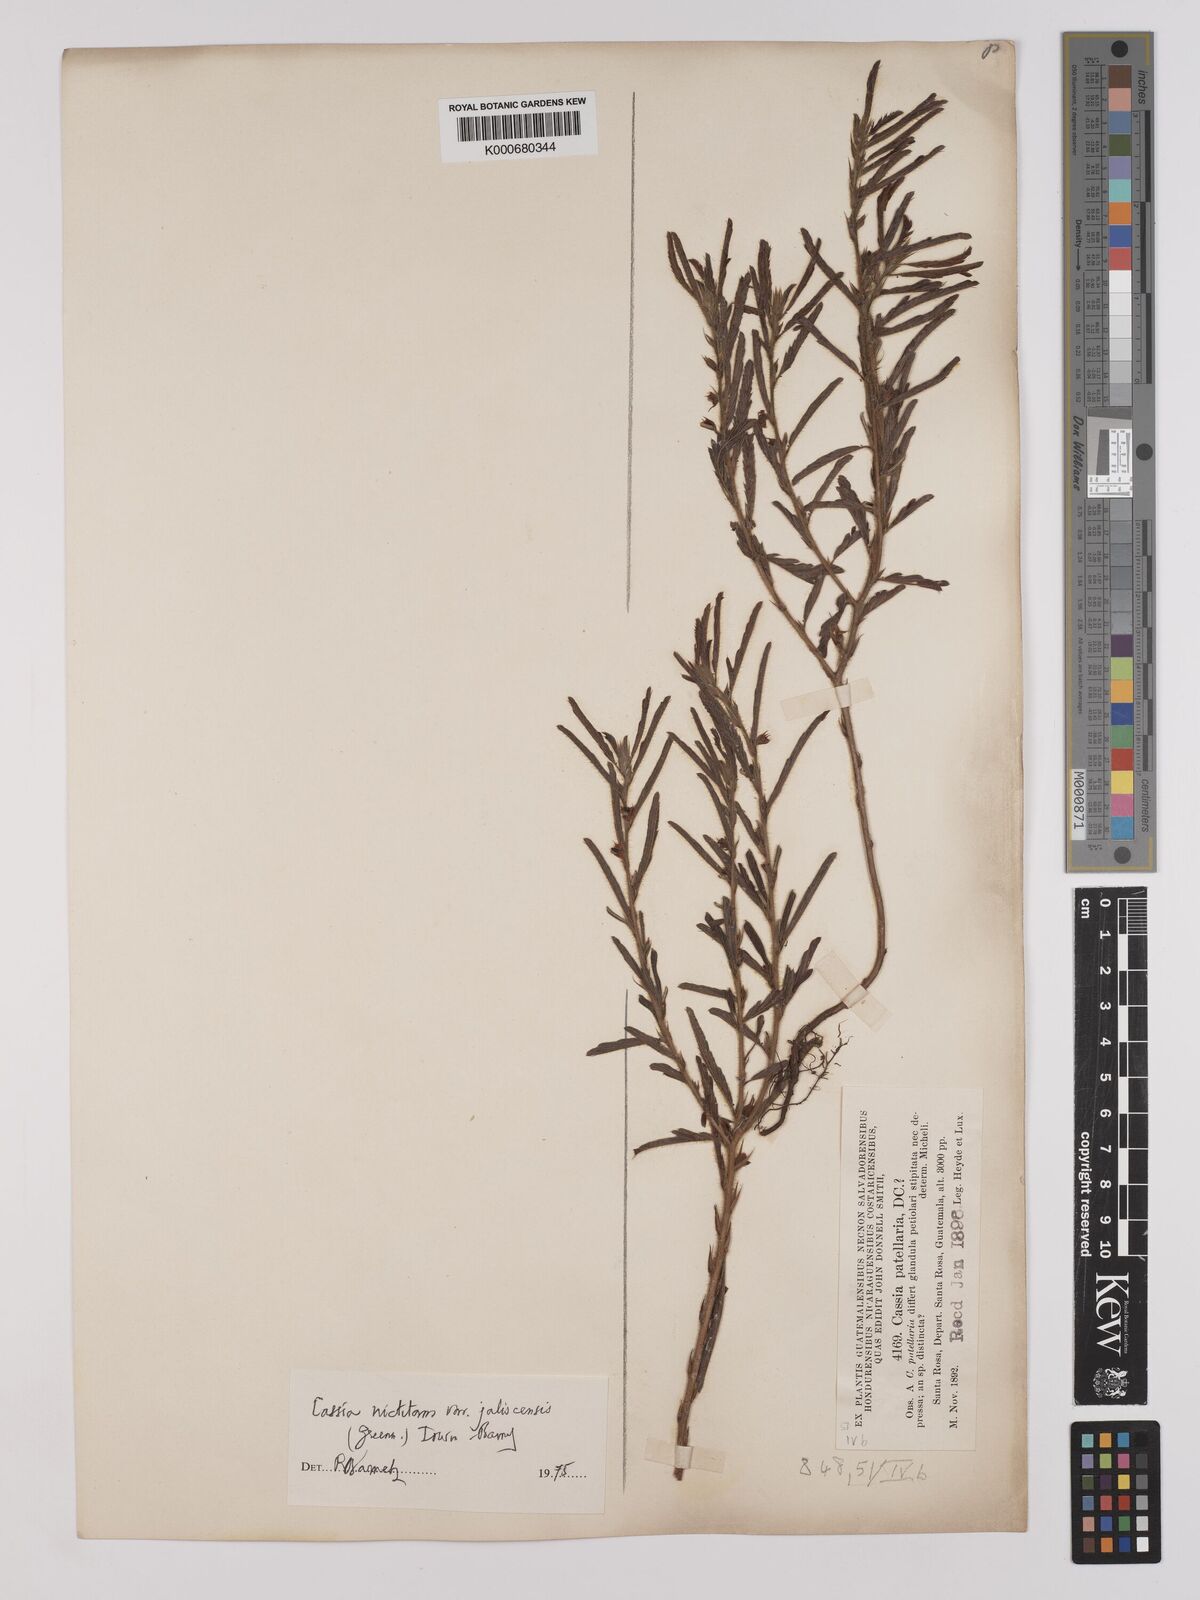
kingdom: Plantae
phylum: Tracheophyta
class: Magnoliopsida
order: Fabales
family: Fabaceae
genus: Chamaecrista
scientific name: Chamaecrista nictitans
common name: Sensitive cassia
